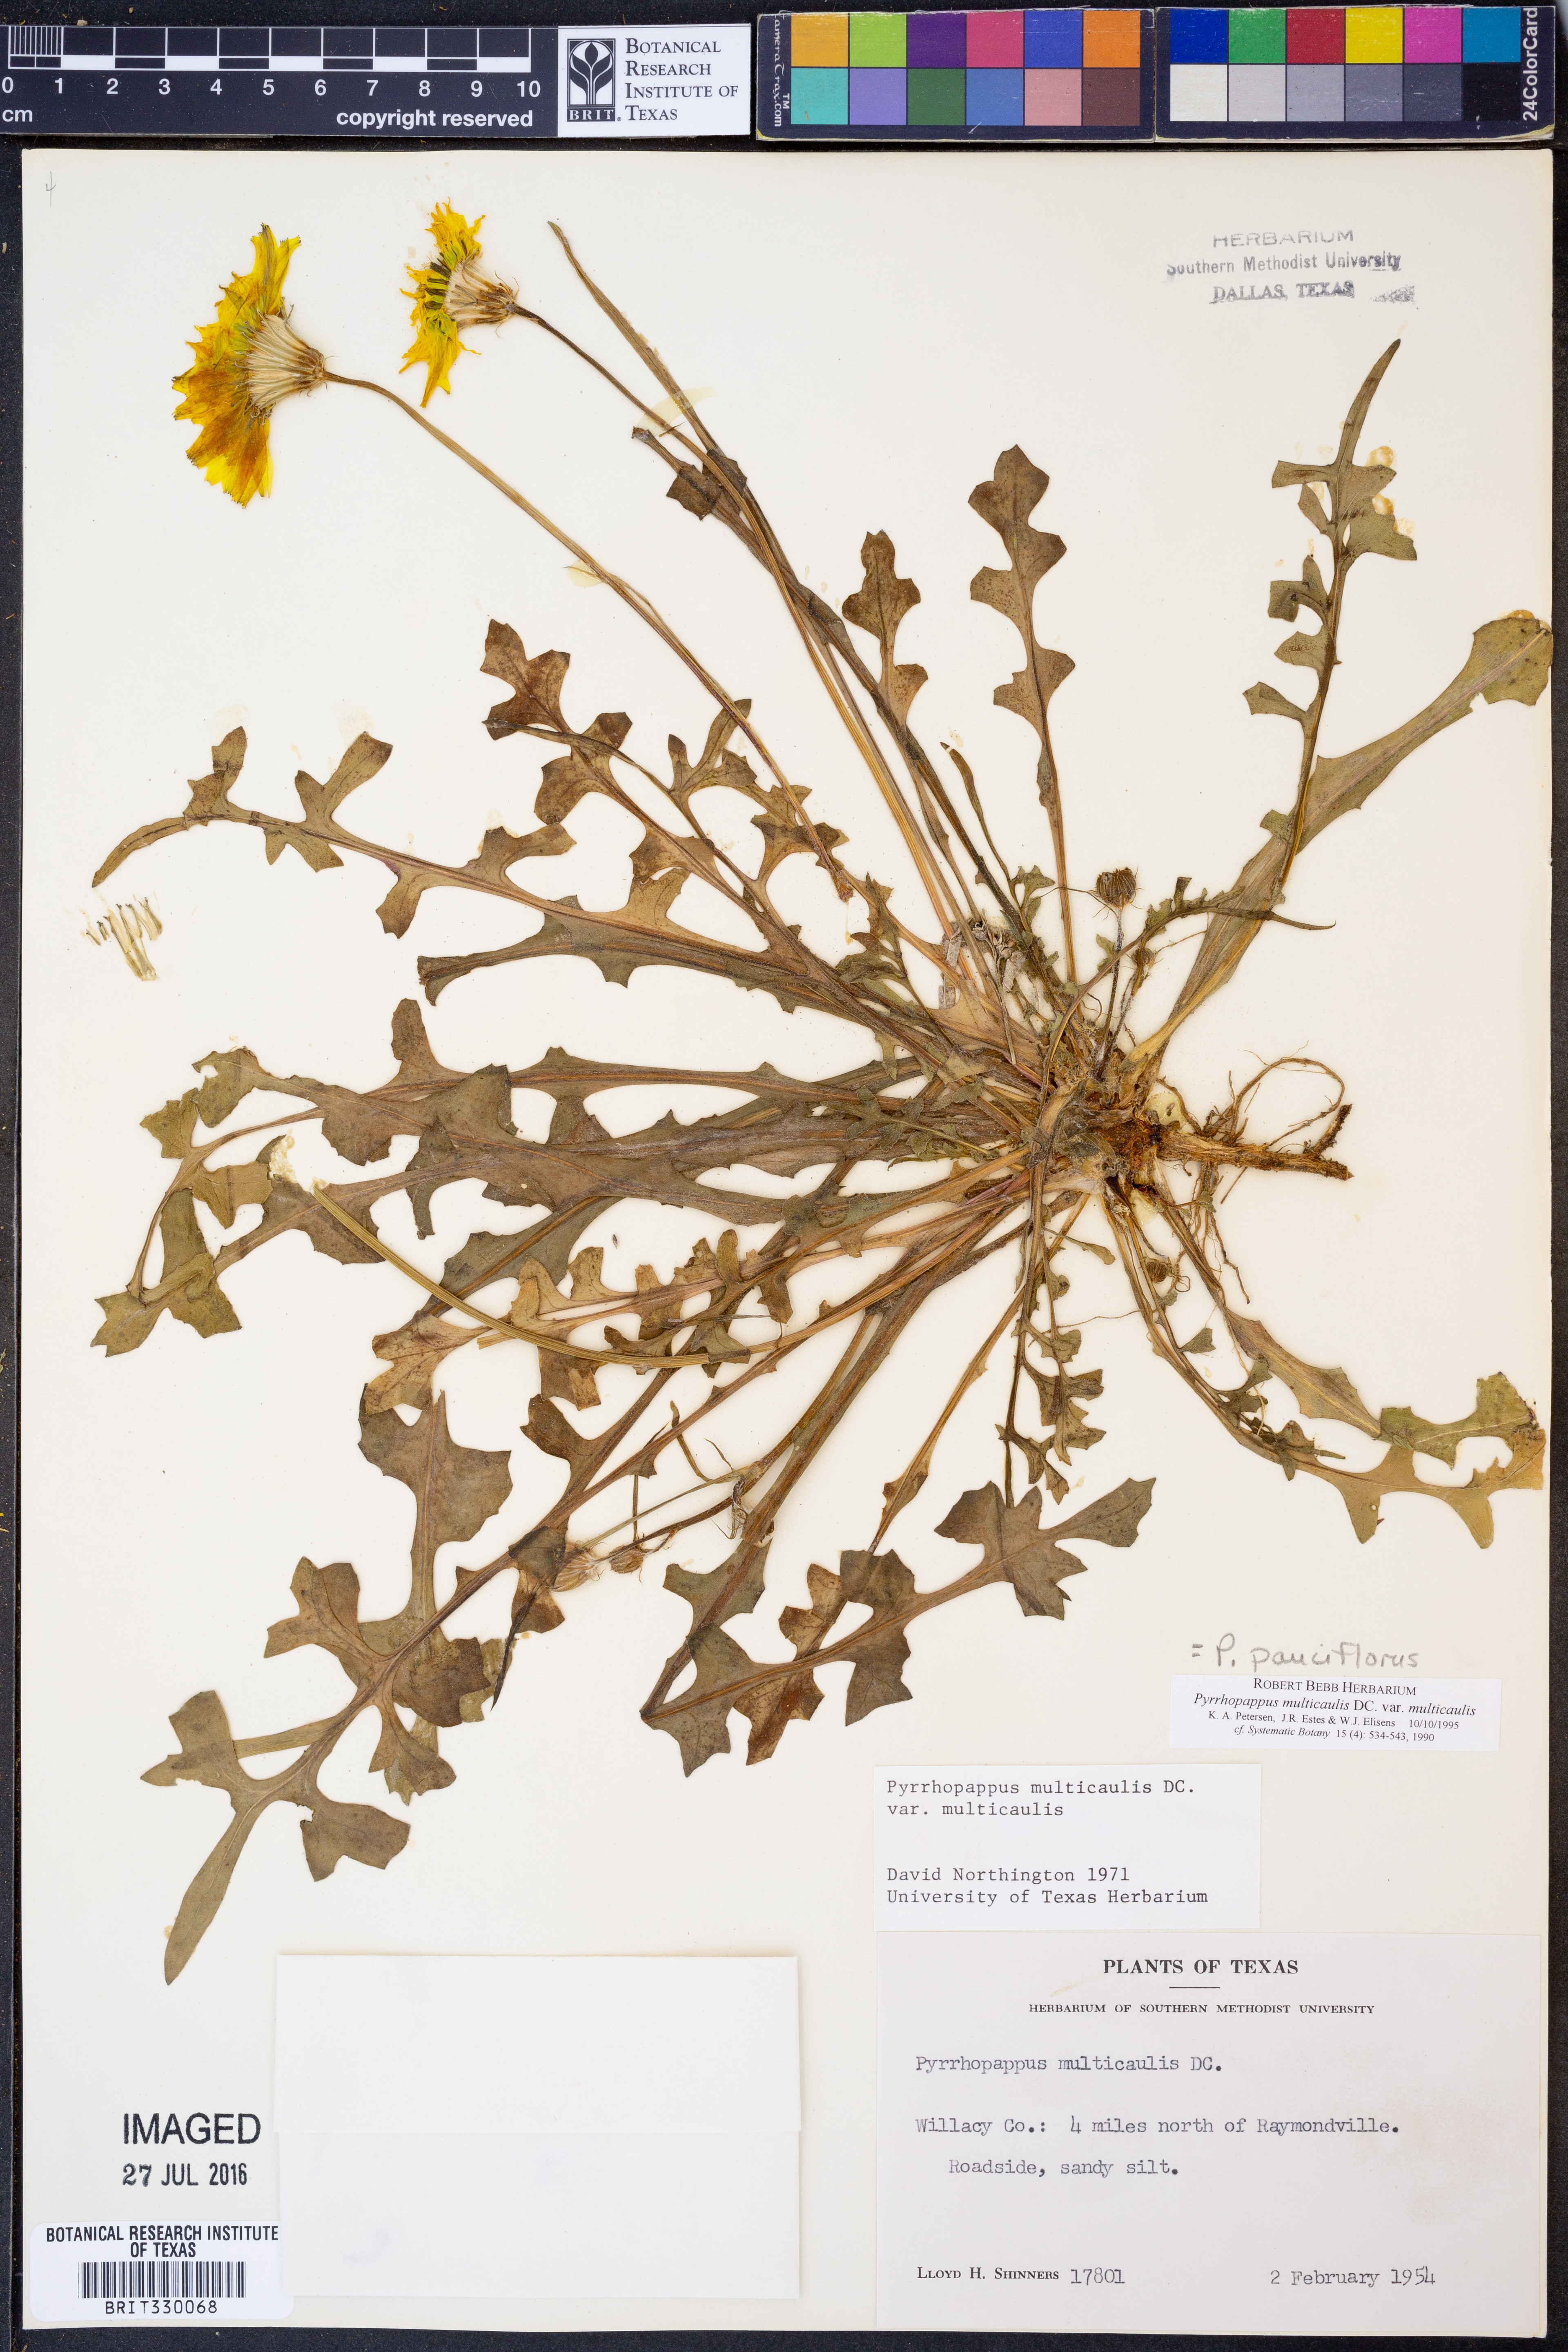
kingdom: Plantae
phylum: Tracheophyta
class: Magnoliopsida
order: Asterales
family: Asteraceae
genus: Pyrrhopappus
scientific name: Pyrrhopappus pauciflorus
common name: Texas false dandelion
